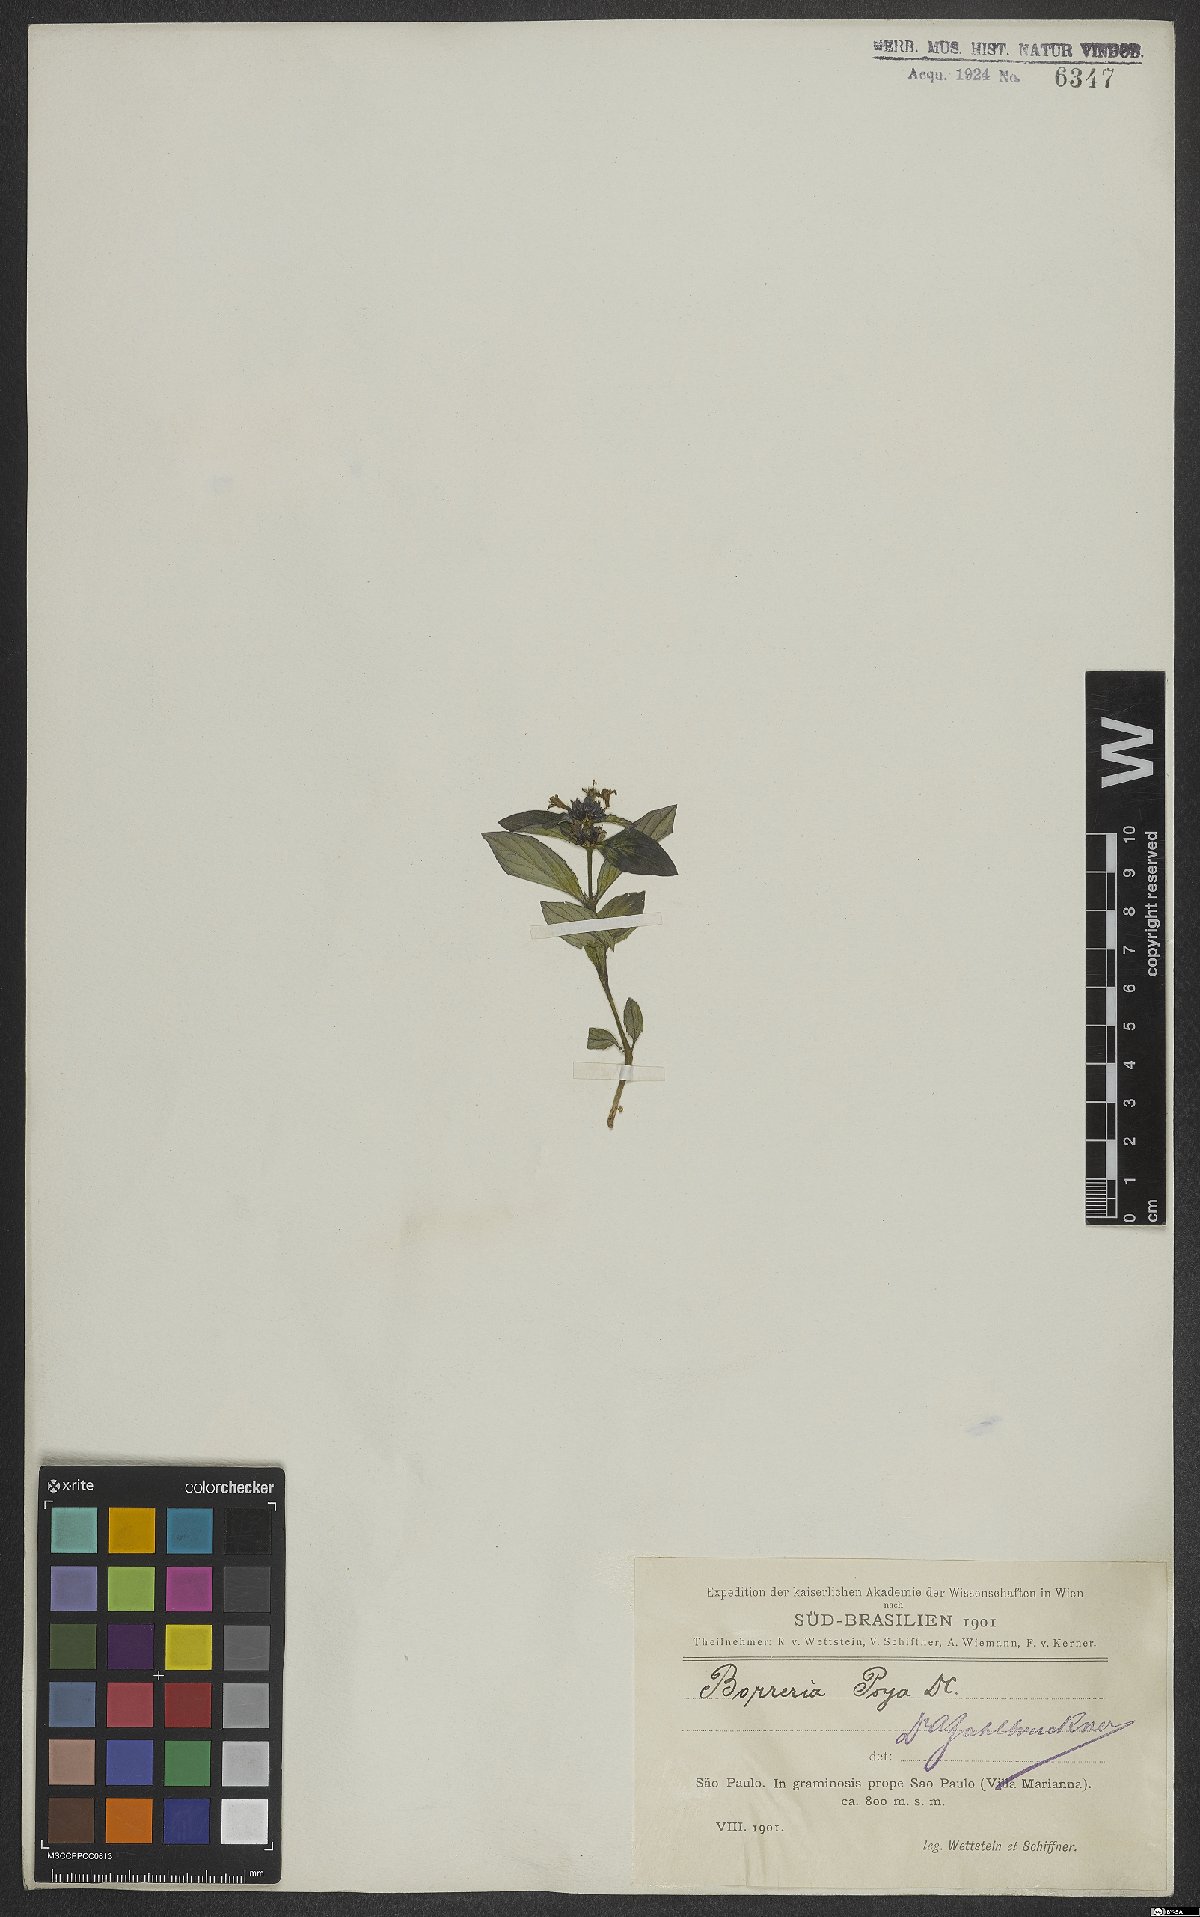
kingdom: Plantae
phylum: Tracheophyta
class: Magnoliopsida
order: Gentianales
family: Rubiaceae
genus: Spermacoce
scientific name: Spermacoce poaya
